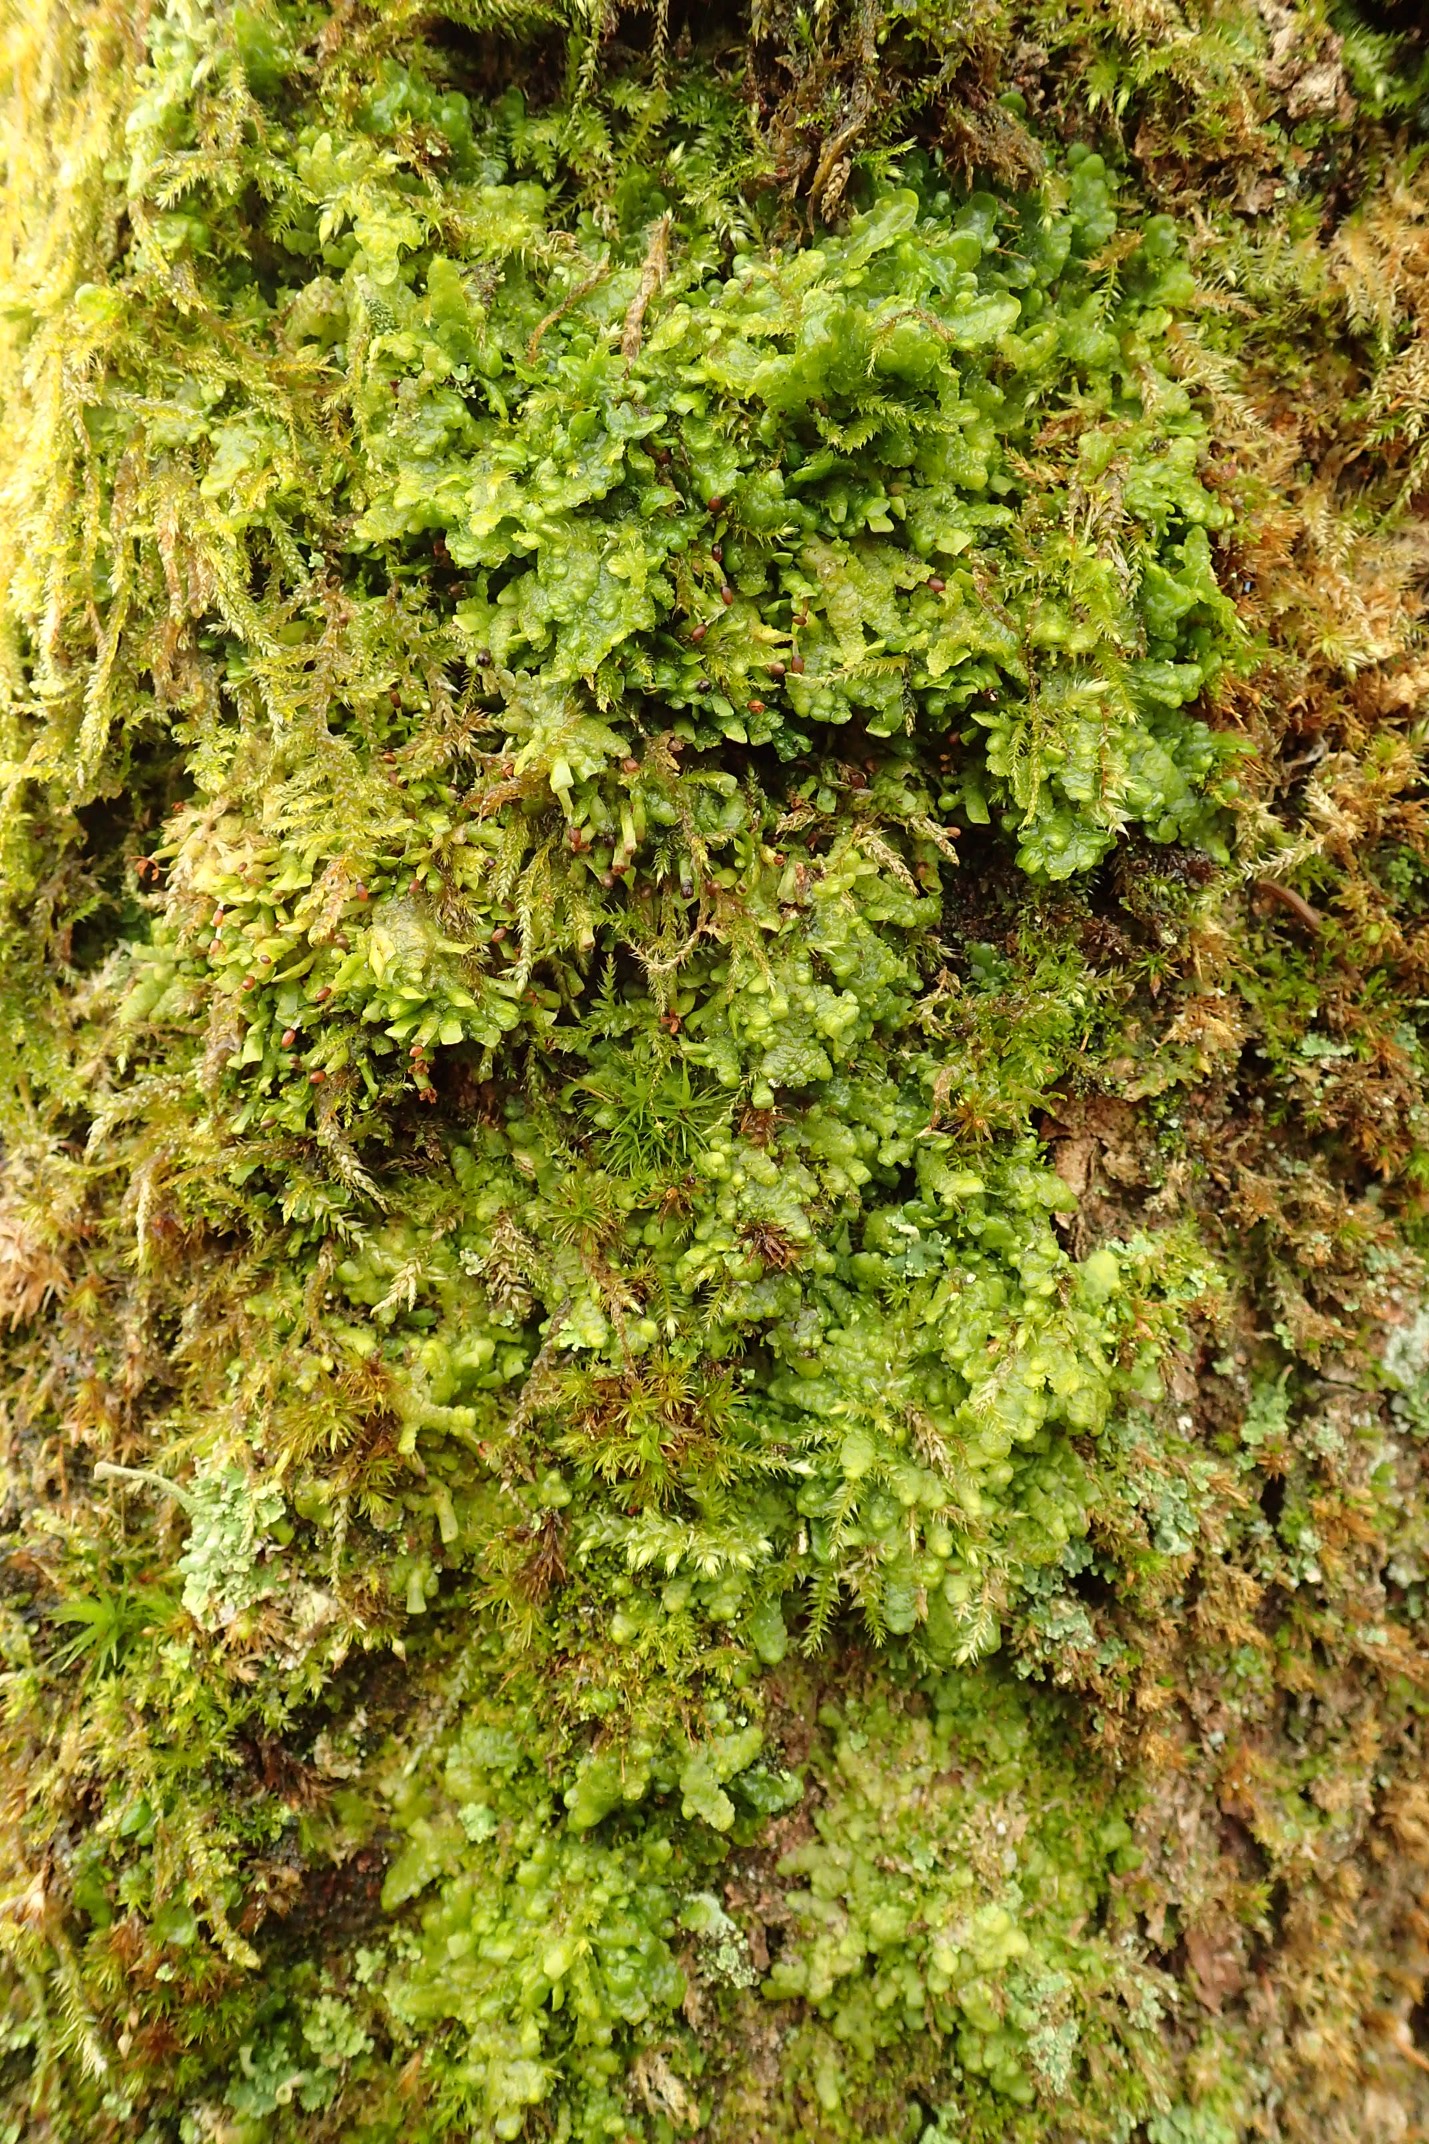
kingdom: Plantae
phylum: Marchantiophyta
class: Jungermanniopsida
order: Porellales
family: Radulaceae
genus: Radula
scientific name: Radula complanata
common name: Almindelig spartelmos
